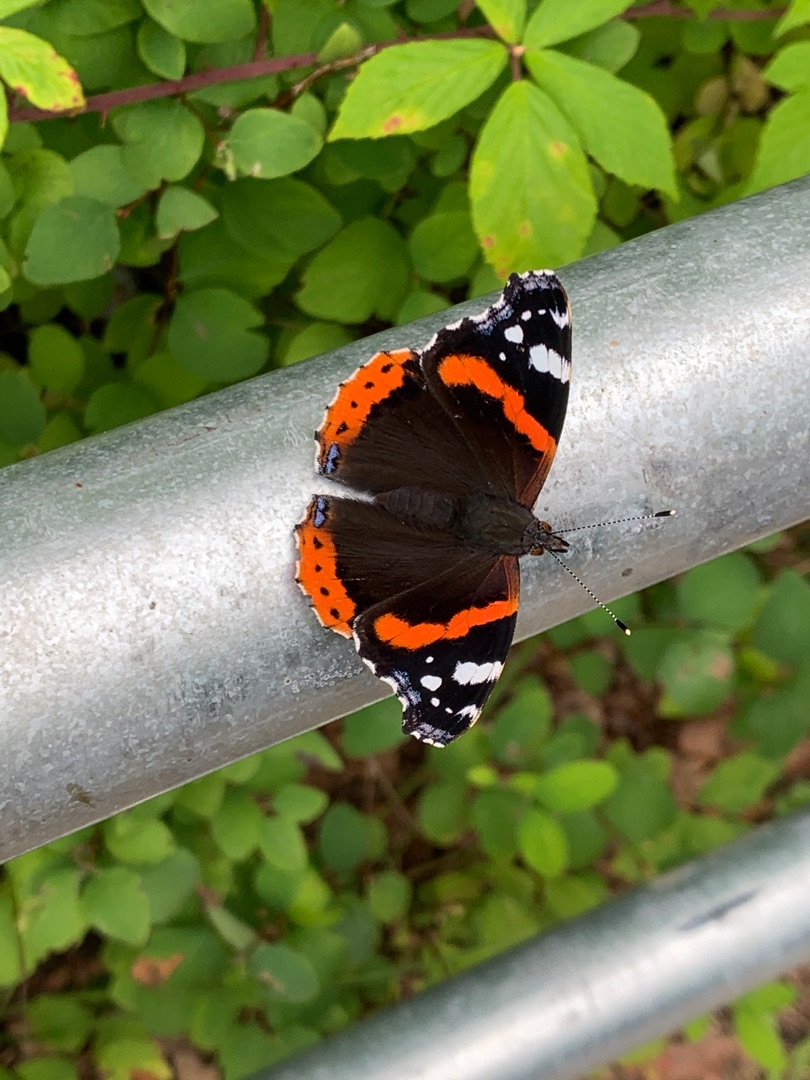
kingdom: Animalia
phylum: Arthropoda
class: Insecta
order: Lepidoptera
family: Nymphalidae
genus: Vanessa
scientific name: Vanessa atalanta
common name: Admiral
